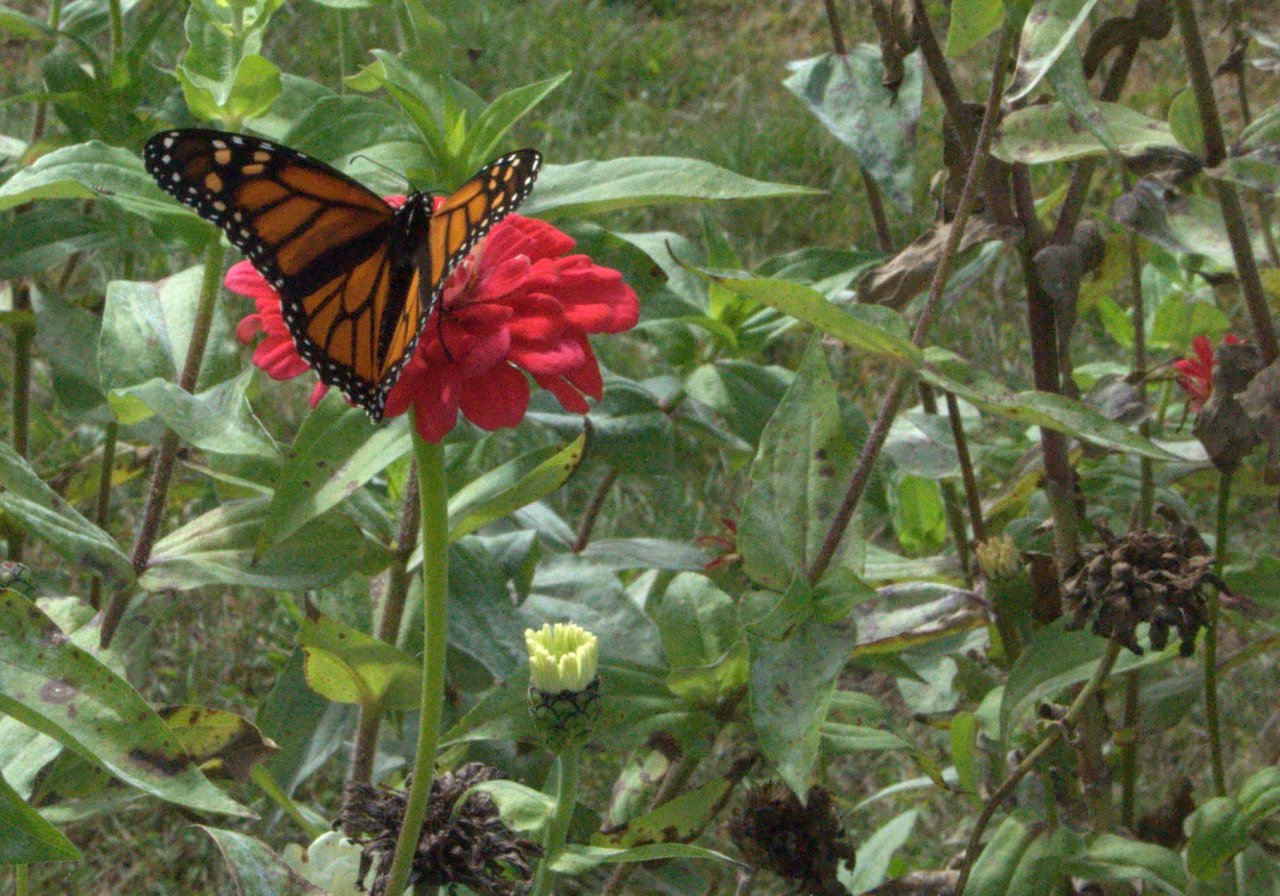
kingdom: Animalia
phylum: Arthropoda
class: Insecta
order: Lepidoptera
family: Nymphalidae
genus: Danaus
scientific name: Danaus plexippus
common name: Monarch
